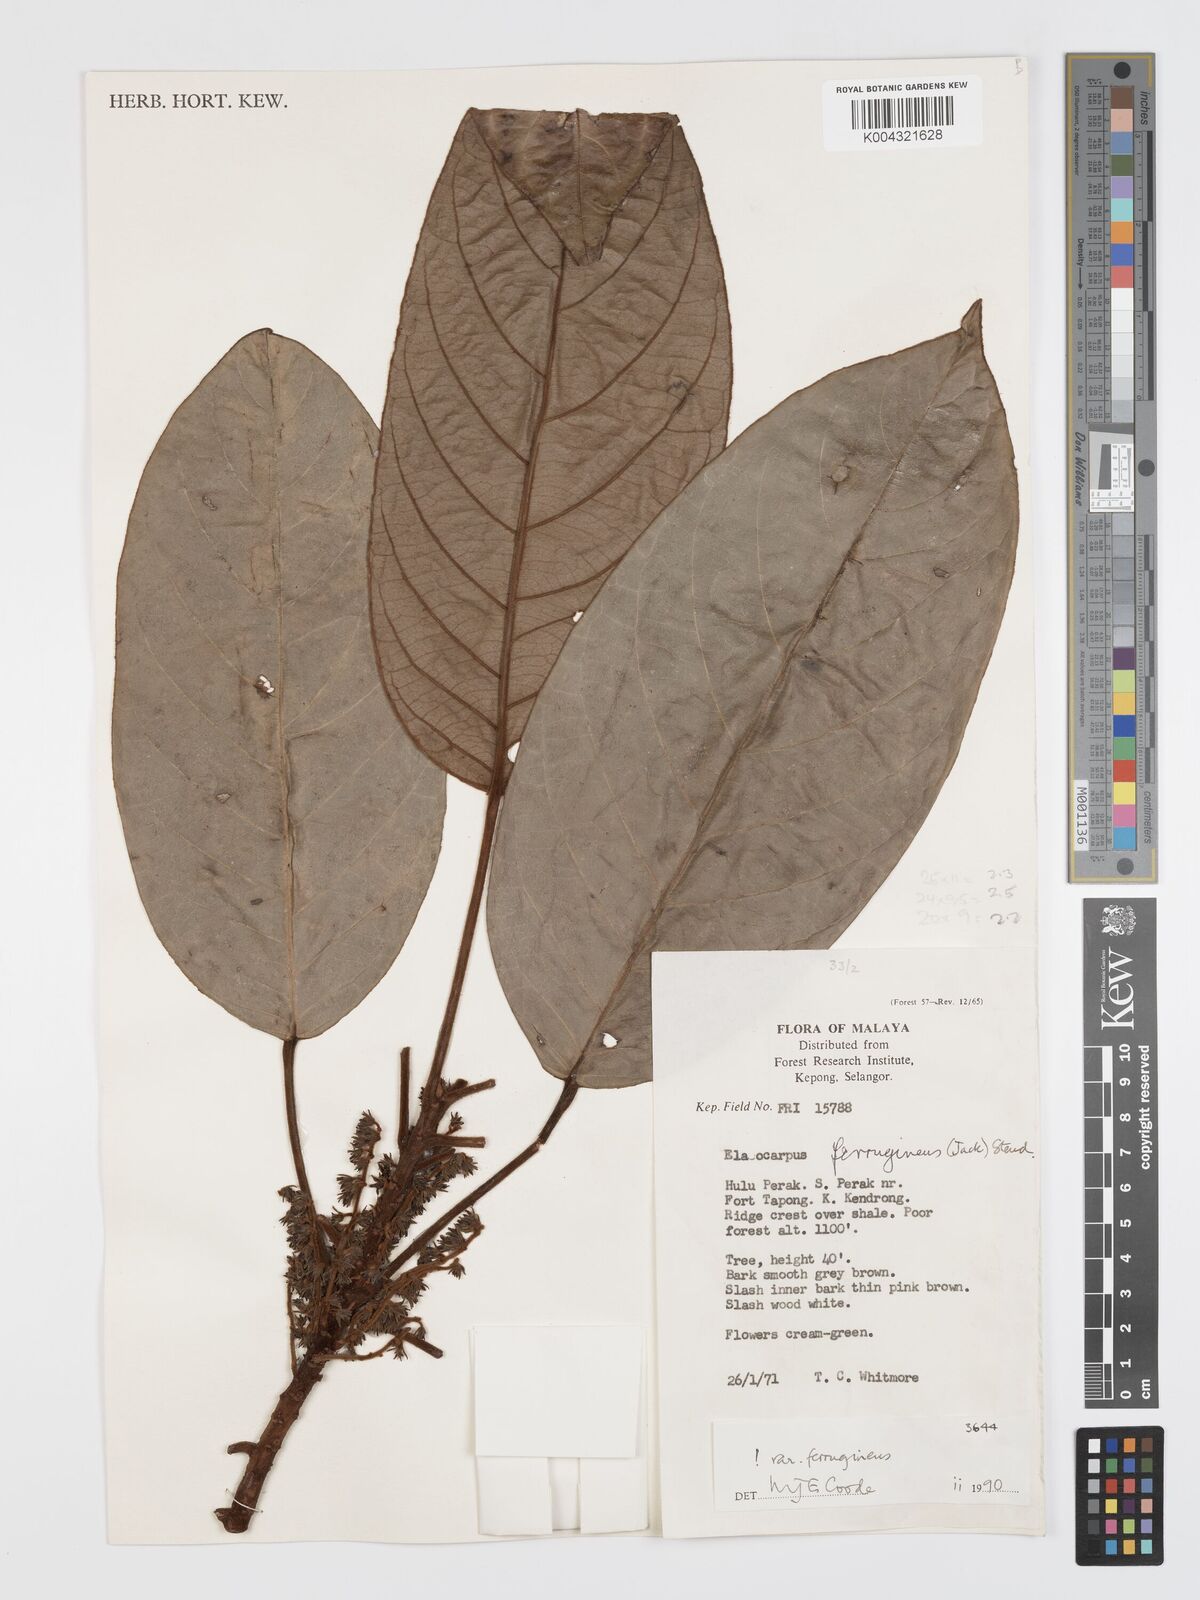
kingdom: Plantae
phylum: Tracheophyta
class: Magnoliopsida
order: Oxalidales
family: Elaeocarpaceae
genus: Elaeocarpus
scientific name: Elaeocarpus ferrugineus
